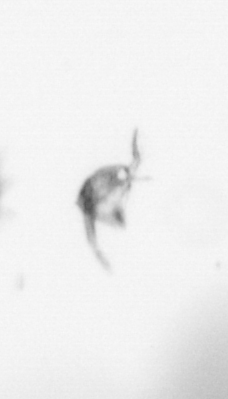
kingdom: Animalia
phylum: Arthropoda
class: Copepoda
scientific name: Copepoda
